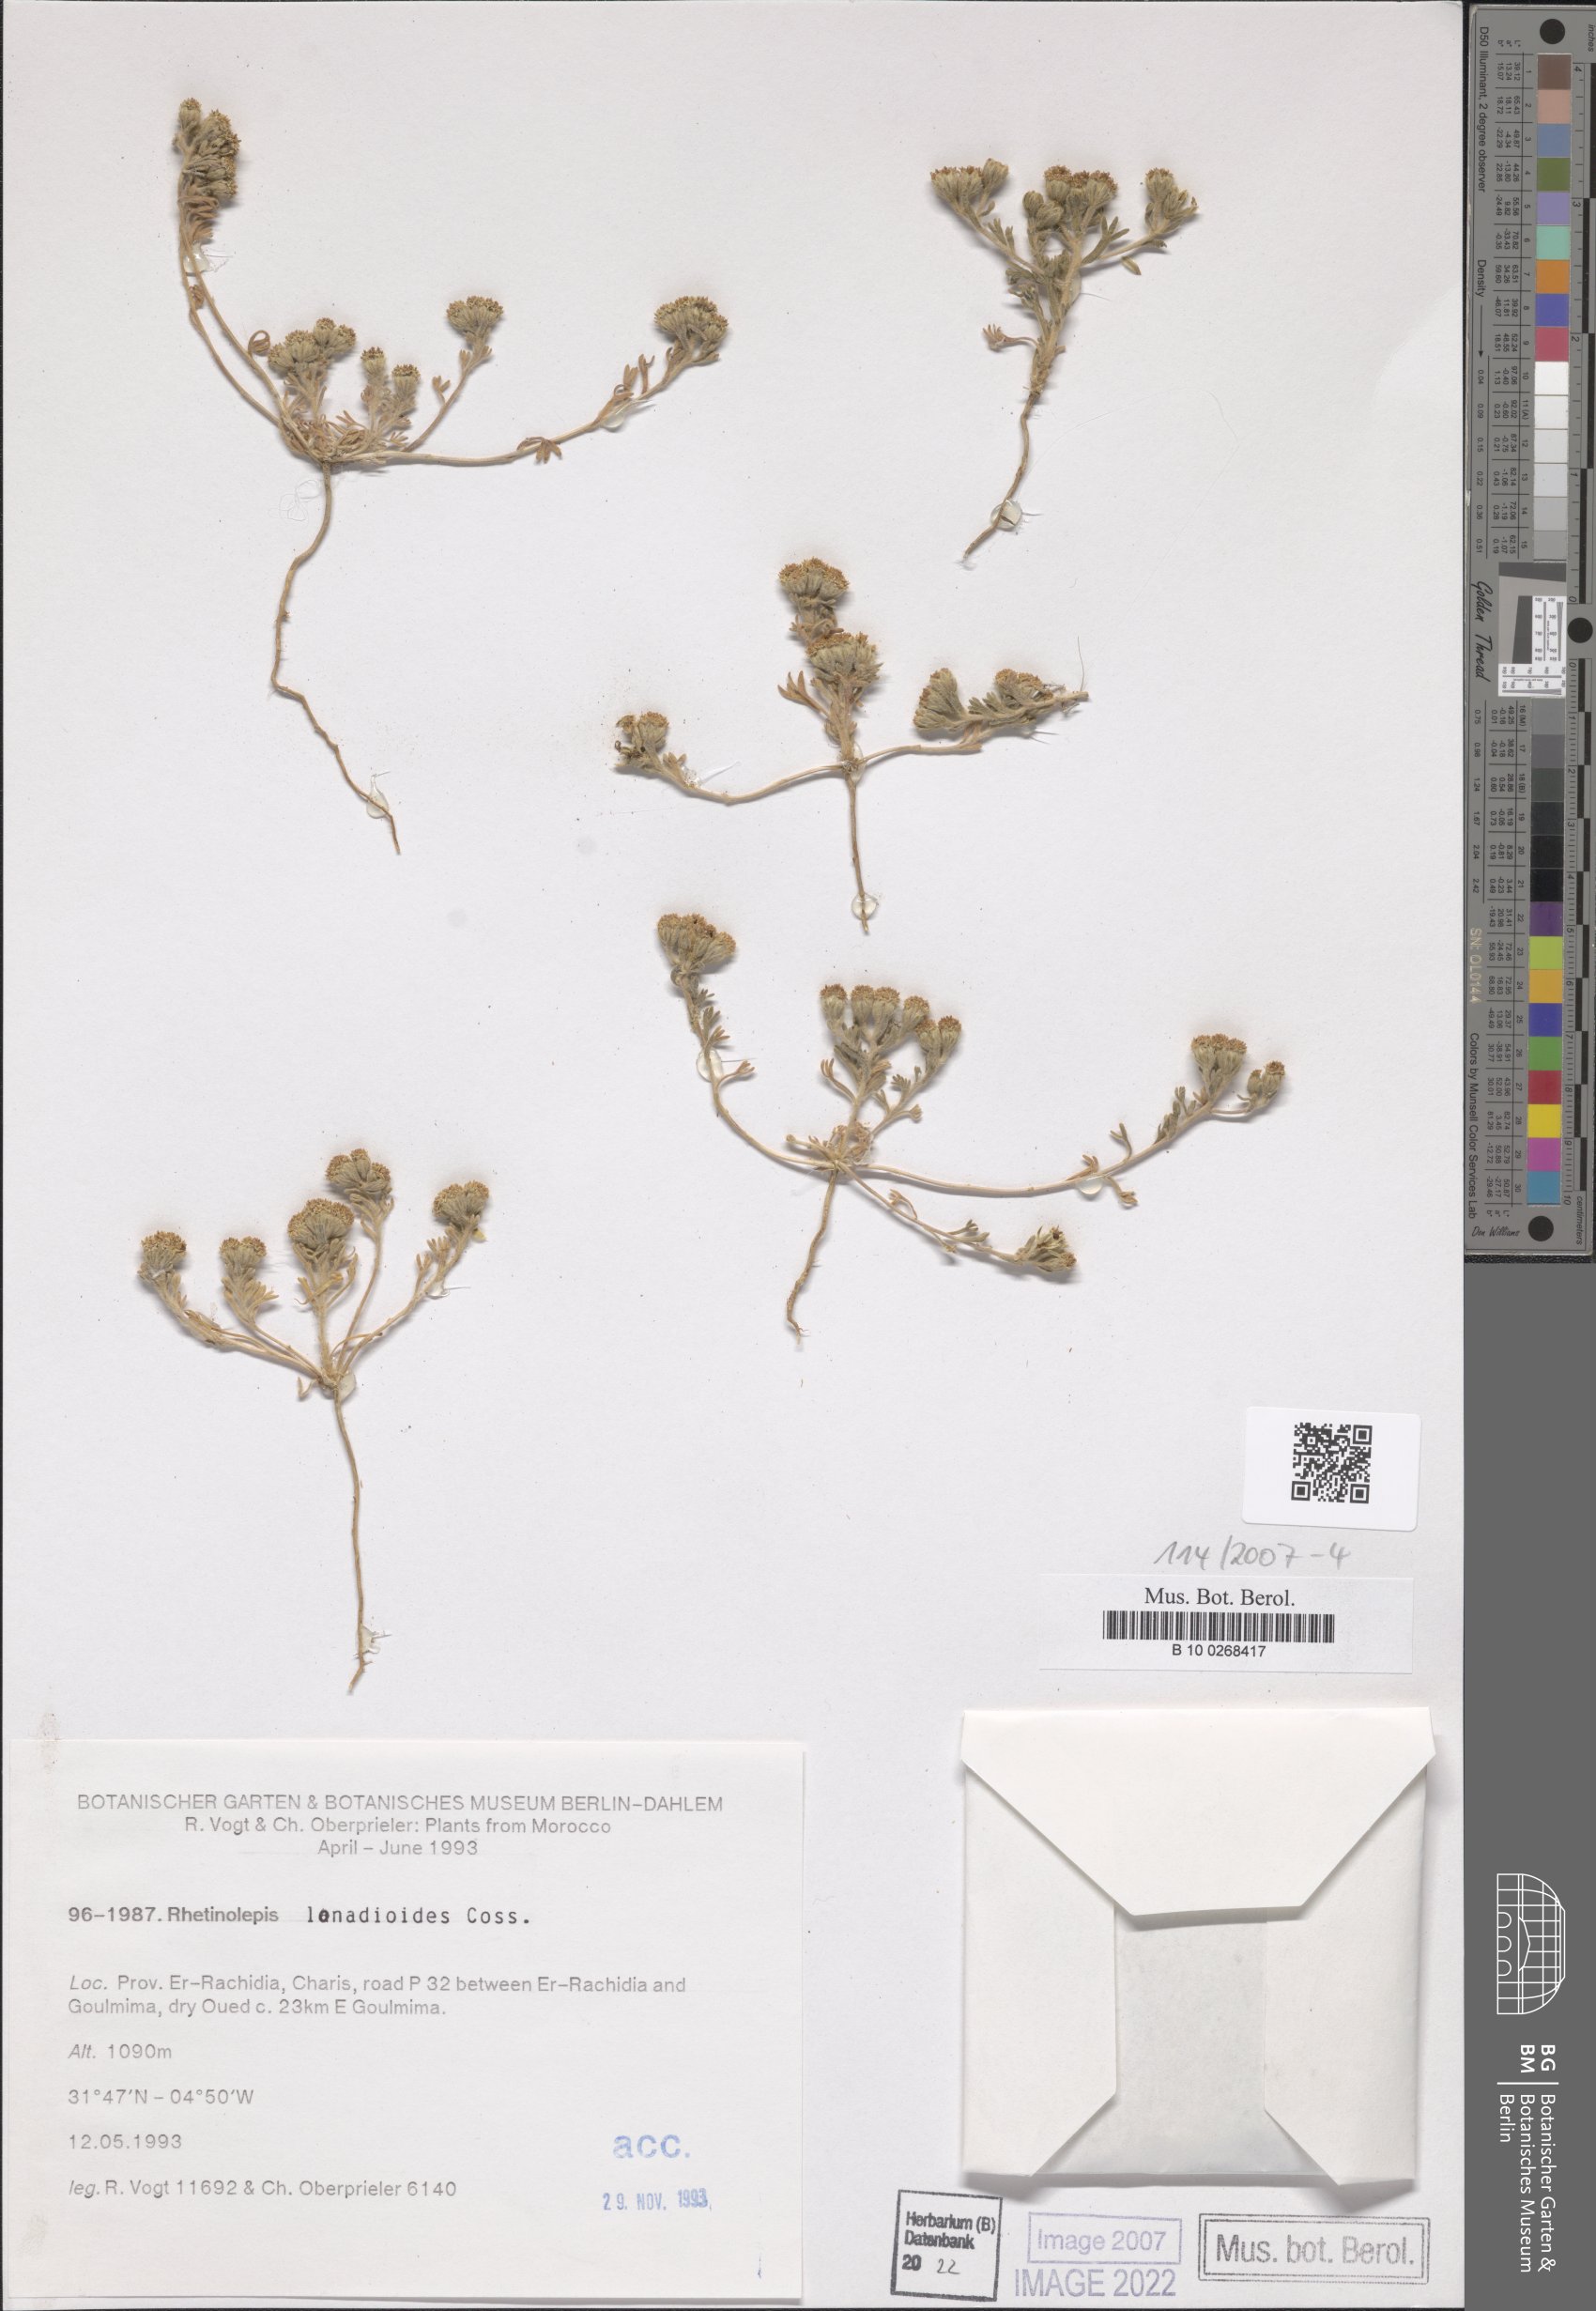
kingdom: Plantae
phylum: Tracheophyta
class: Magnoliopsida
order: Asterales
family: Asteraceae
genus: Rhetinolepis
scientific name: Rhetinolepis lonadioides
